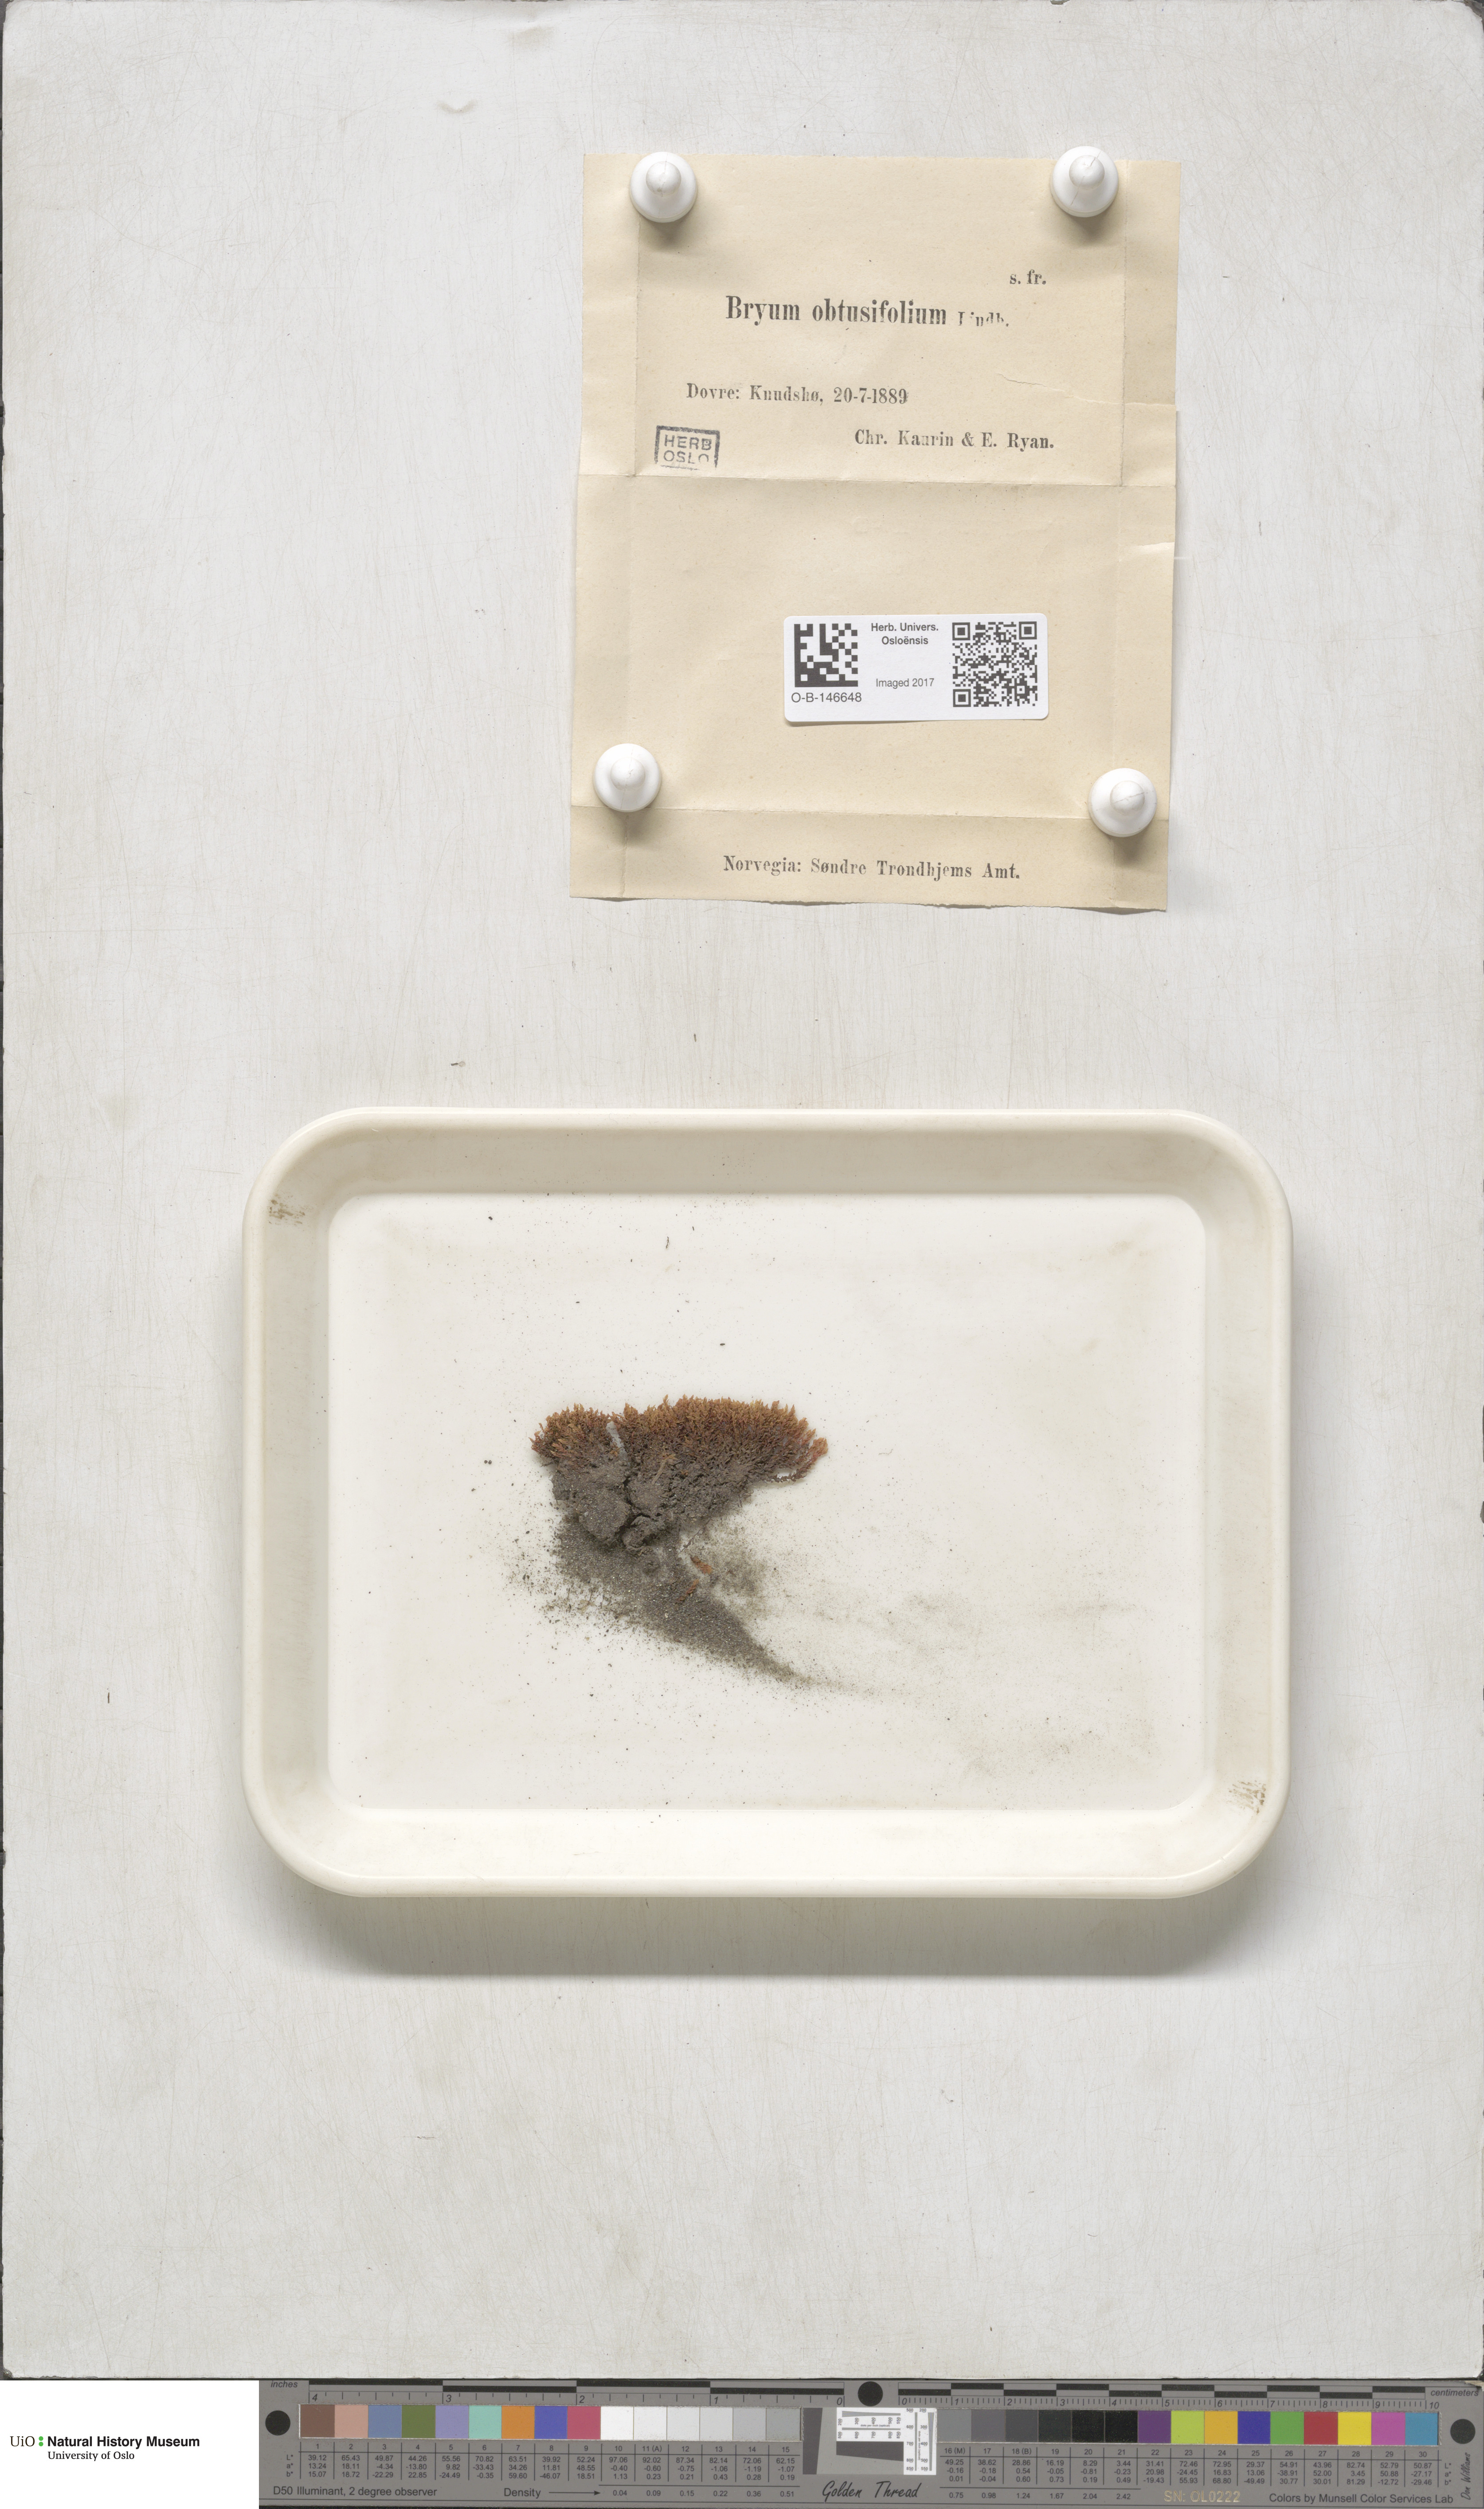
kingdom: Plantae
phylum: Bryophyta
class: Bryopsida
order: Bryales
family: Mniaceae
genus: Pohlia
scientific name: Pohlia obtusifolia
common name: Blunt nodding moss
